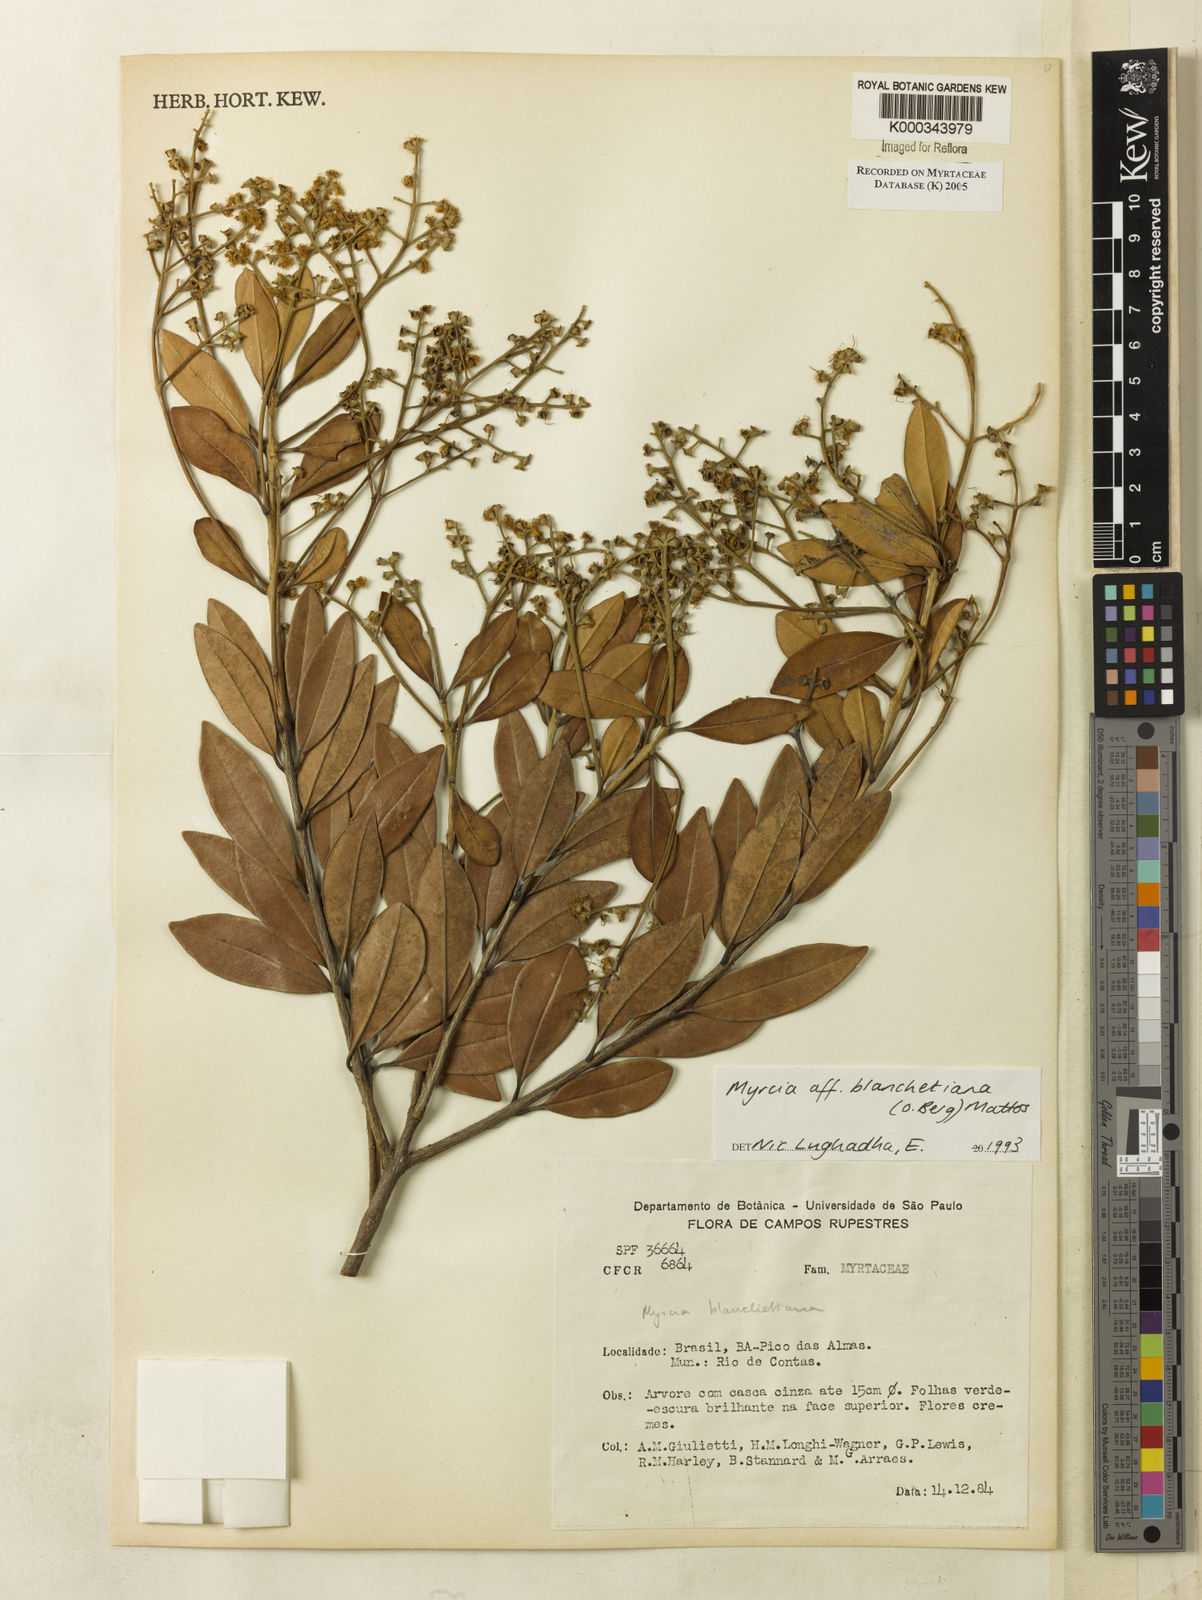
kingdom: Plantae
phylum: Tracheophyta
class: Magnoliopsida
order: Myrtales
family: Myrtaceae
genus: Myrcia
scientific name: Myrcia blanchetiana
